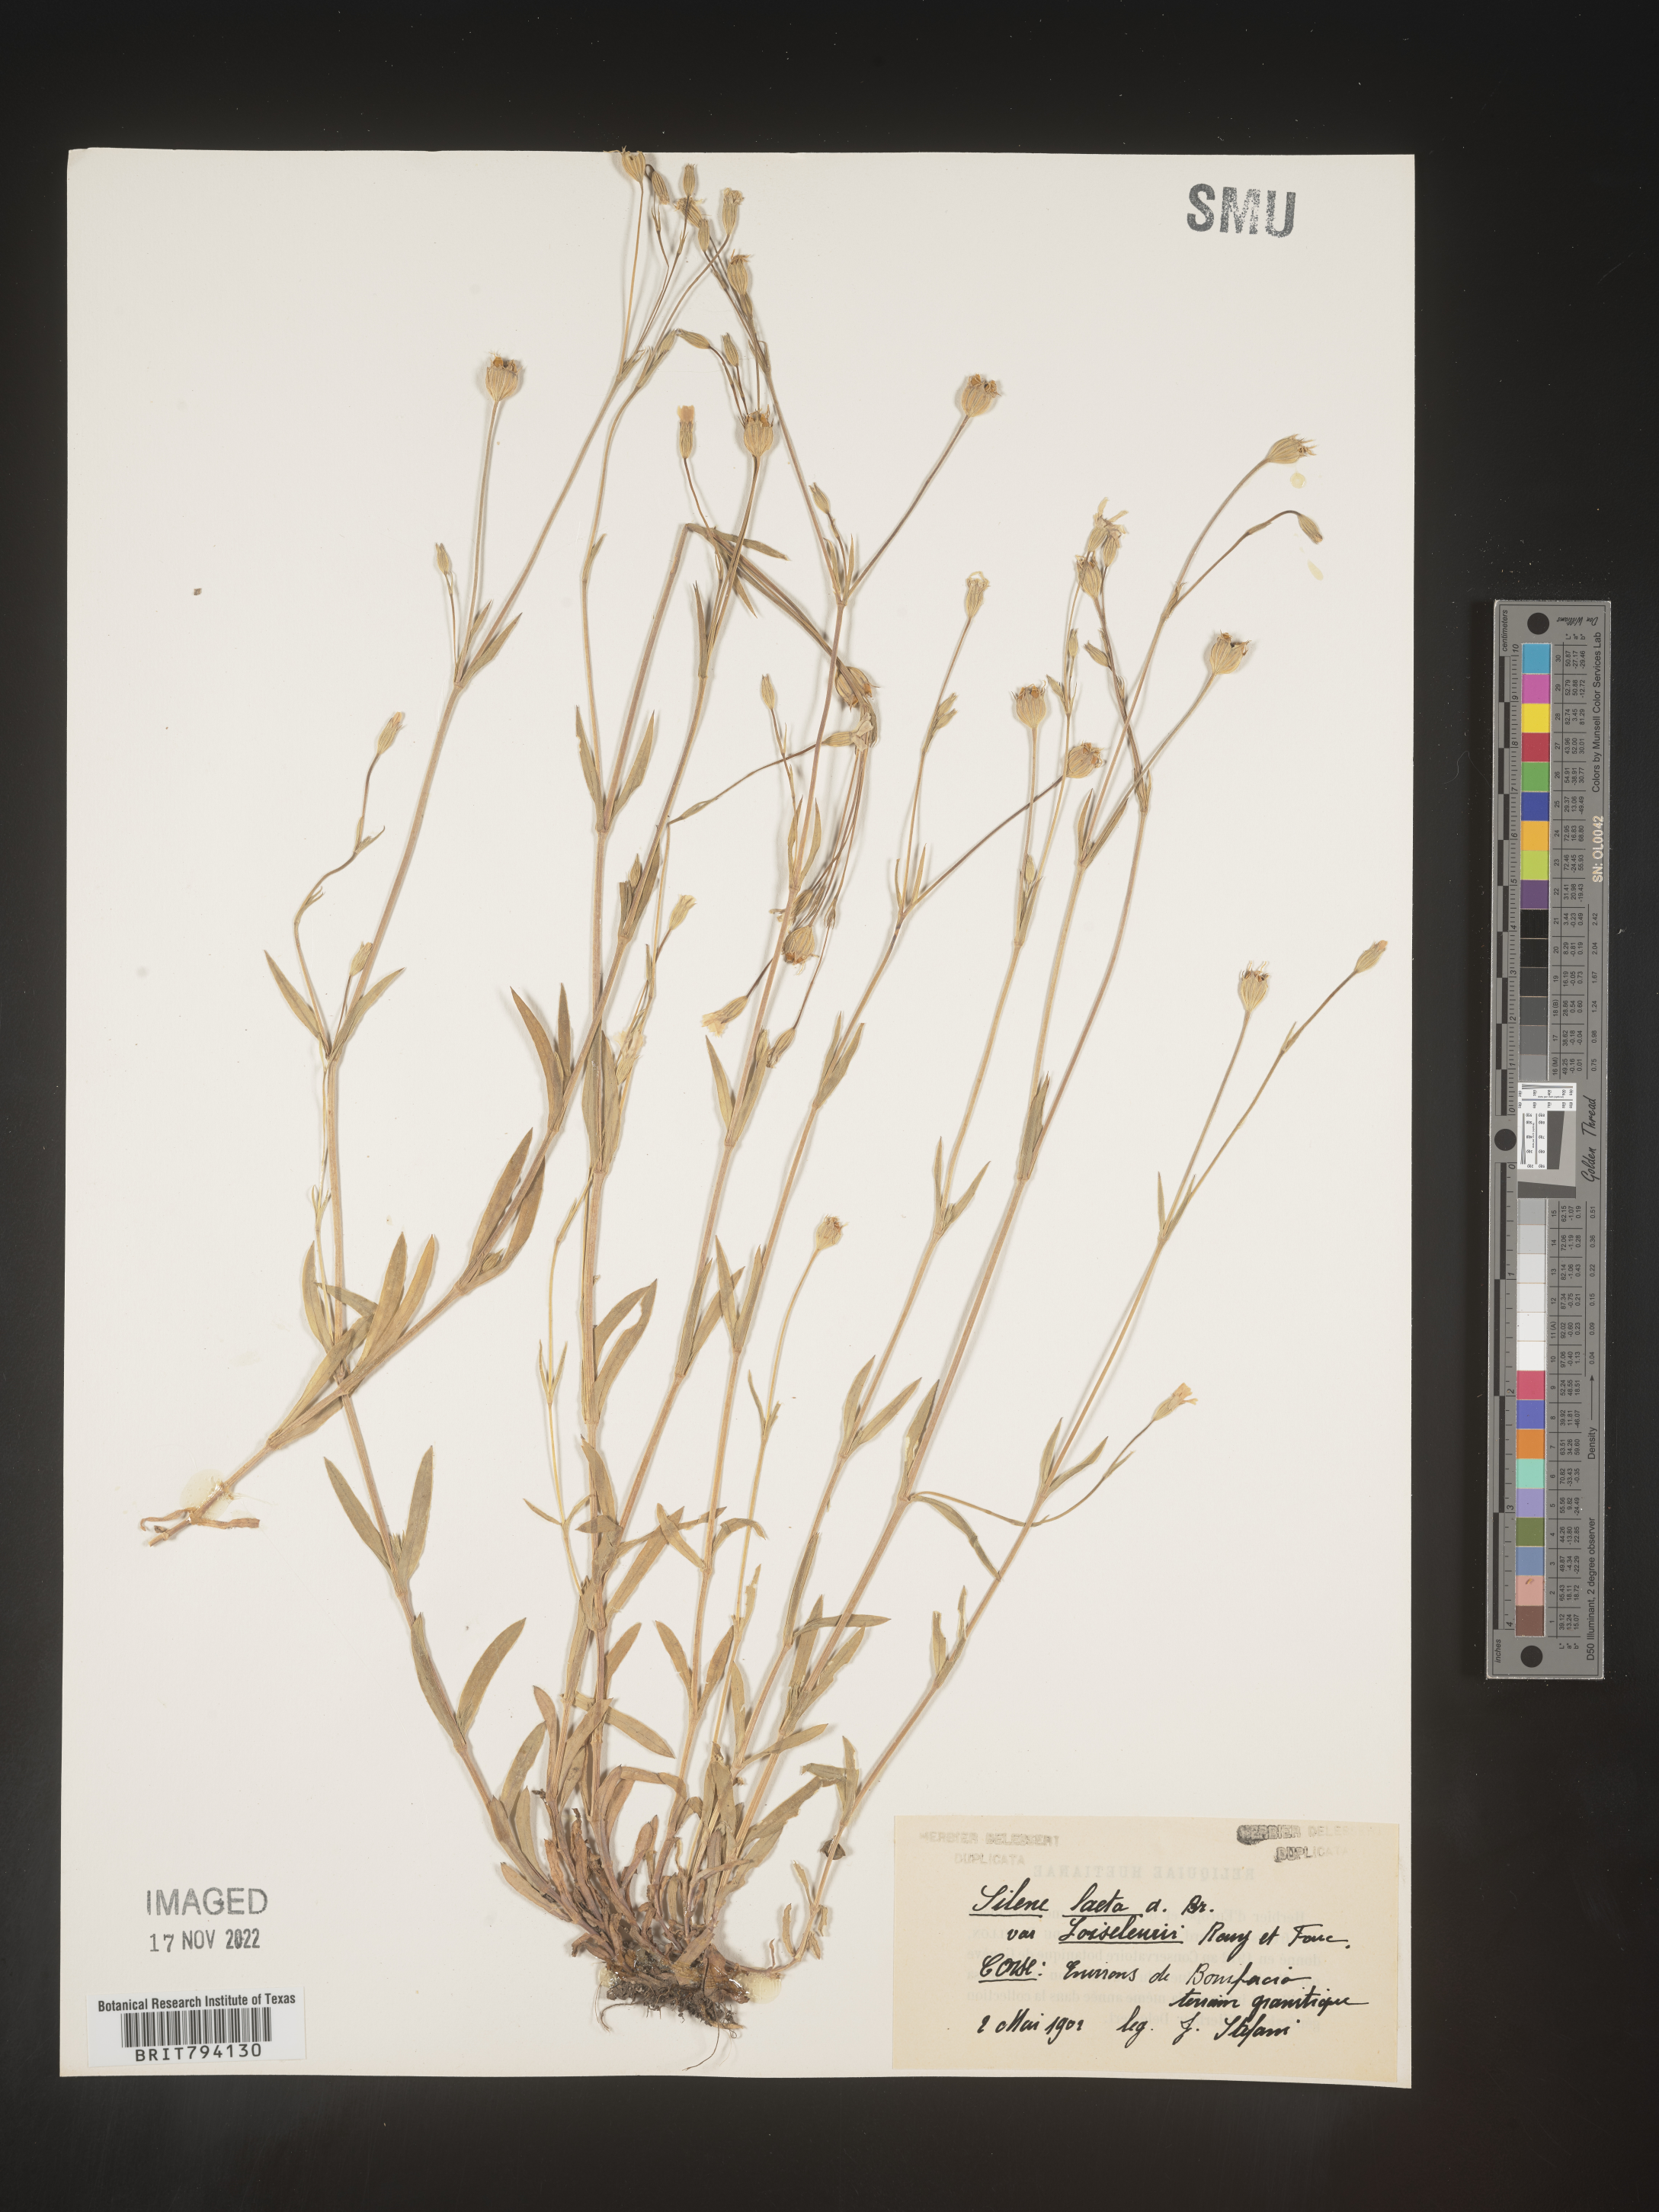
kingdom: Plantae
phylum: Tracheophyta
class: Magnoliopsida
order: Caryophyllales
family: Caryophyllaceae
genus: Eudianthe
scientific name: Eudianthe laeta
